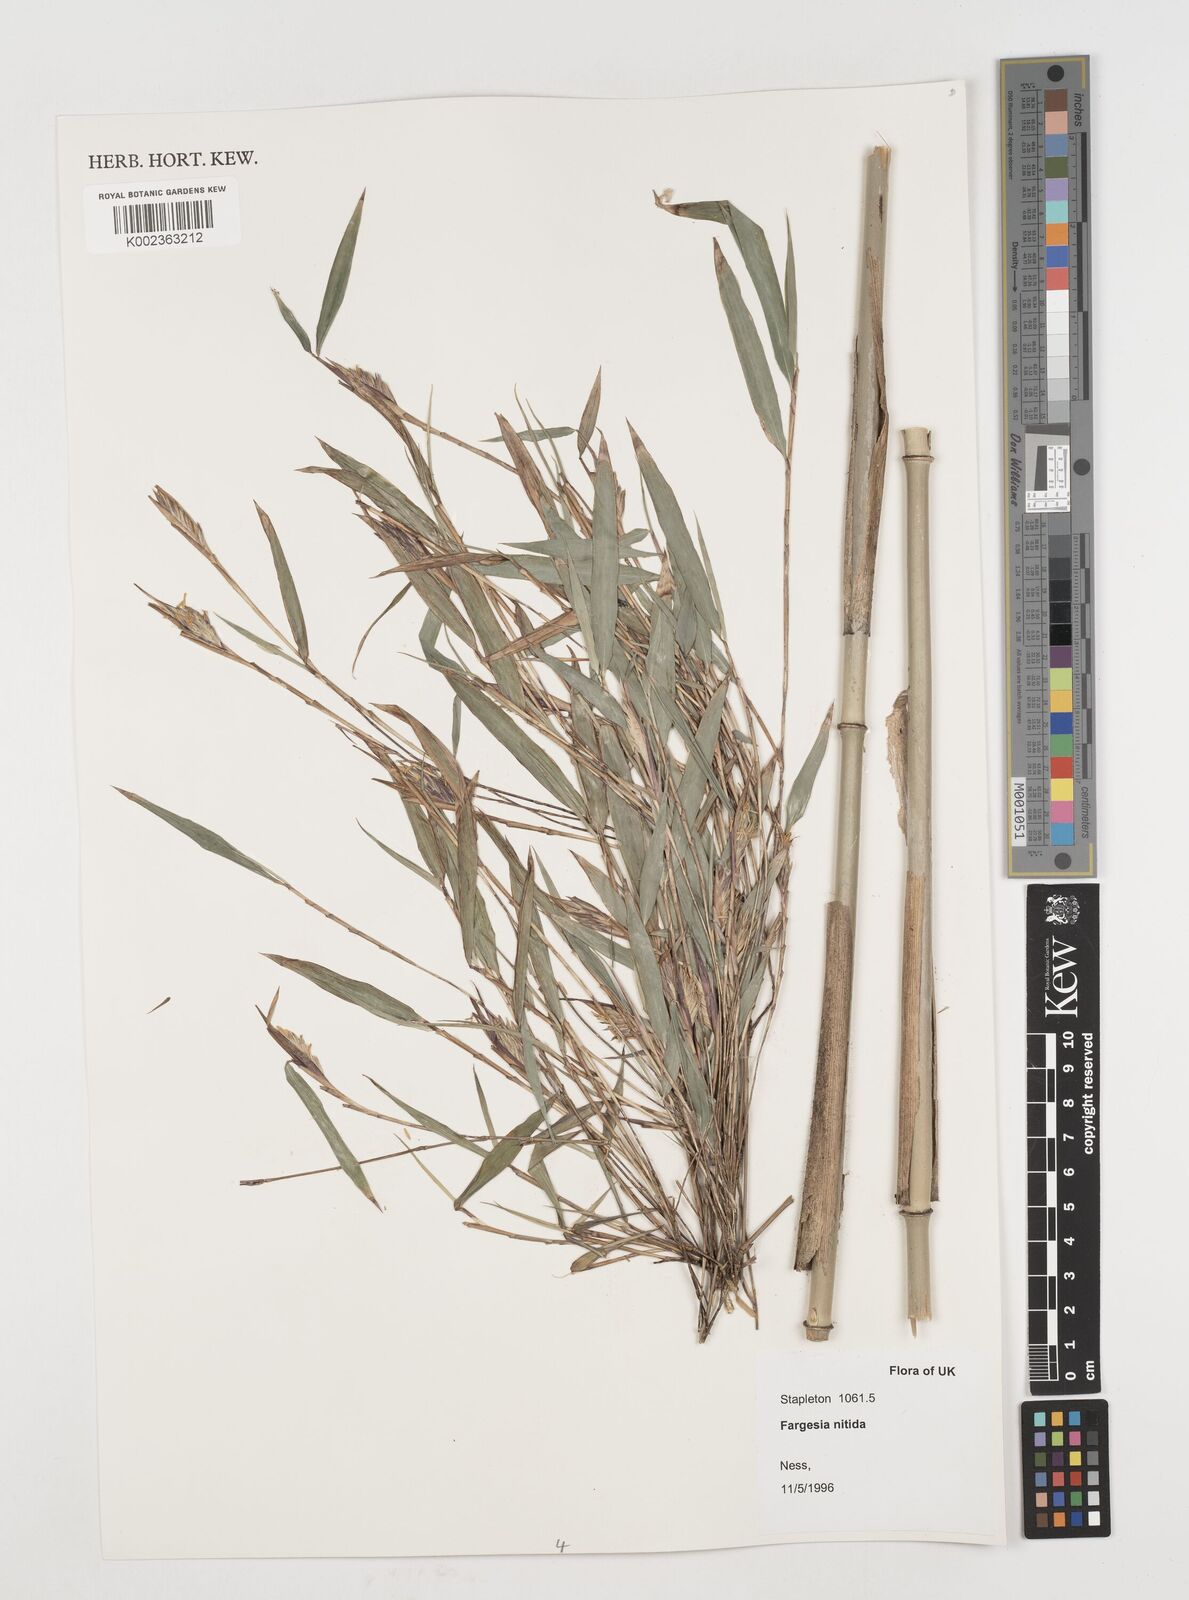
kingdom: Plantae
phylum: Tracheophyta
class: Liliopsida
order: Poales
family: Poaceae
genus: Fargesia
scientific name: Fargesia nitida ex
